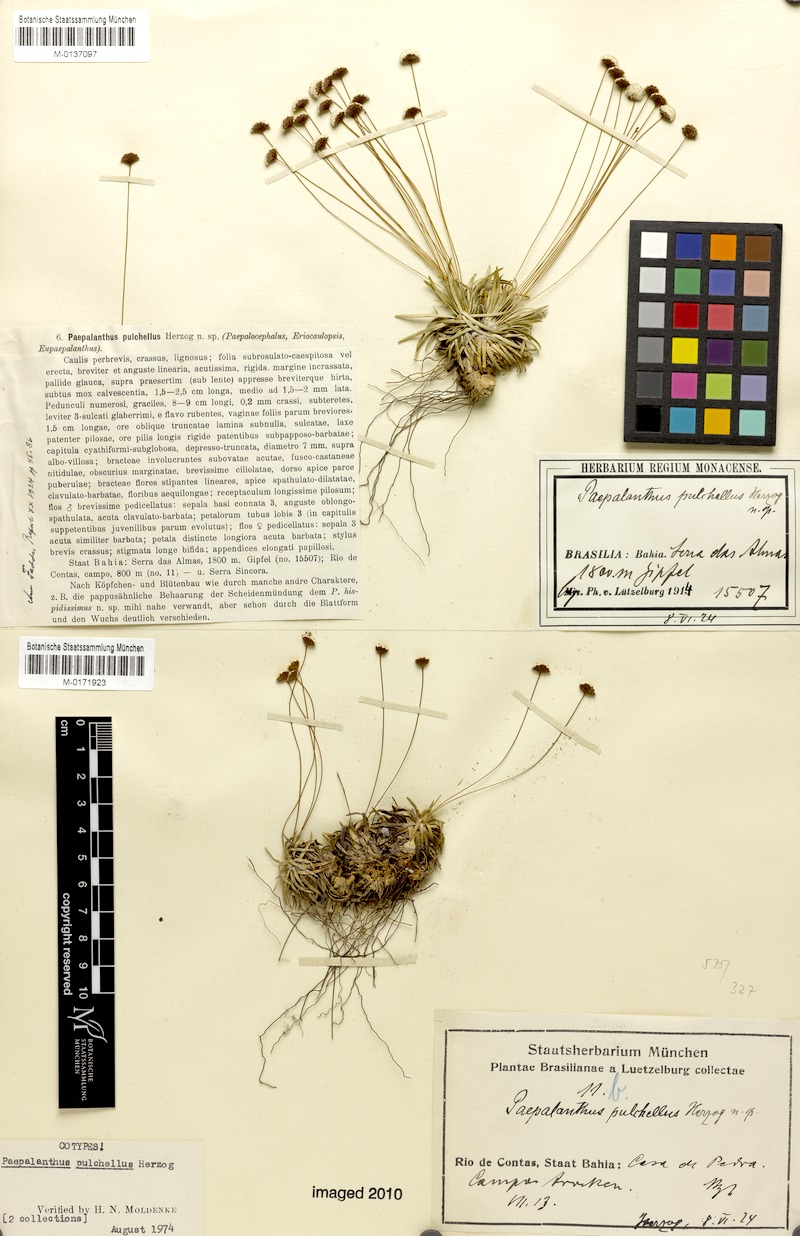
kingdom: Plantae
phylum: Tracheophyta
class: Liliopsida
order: Poales
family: Eriocaulaceae
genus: Paepalanthus
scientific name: Paepalanthus pulchellus
